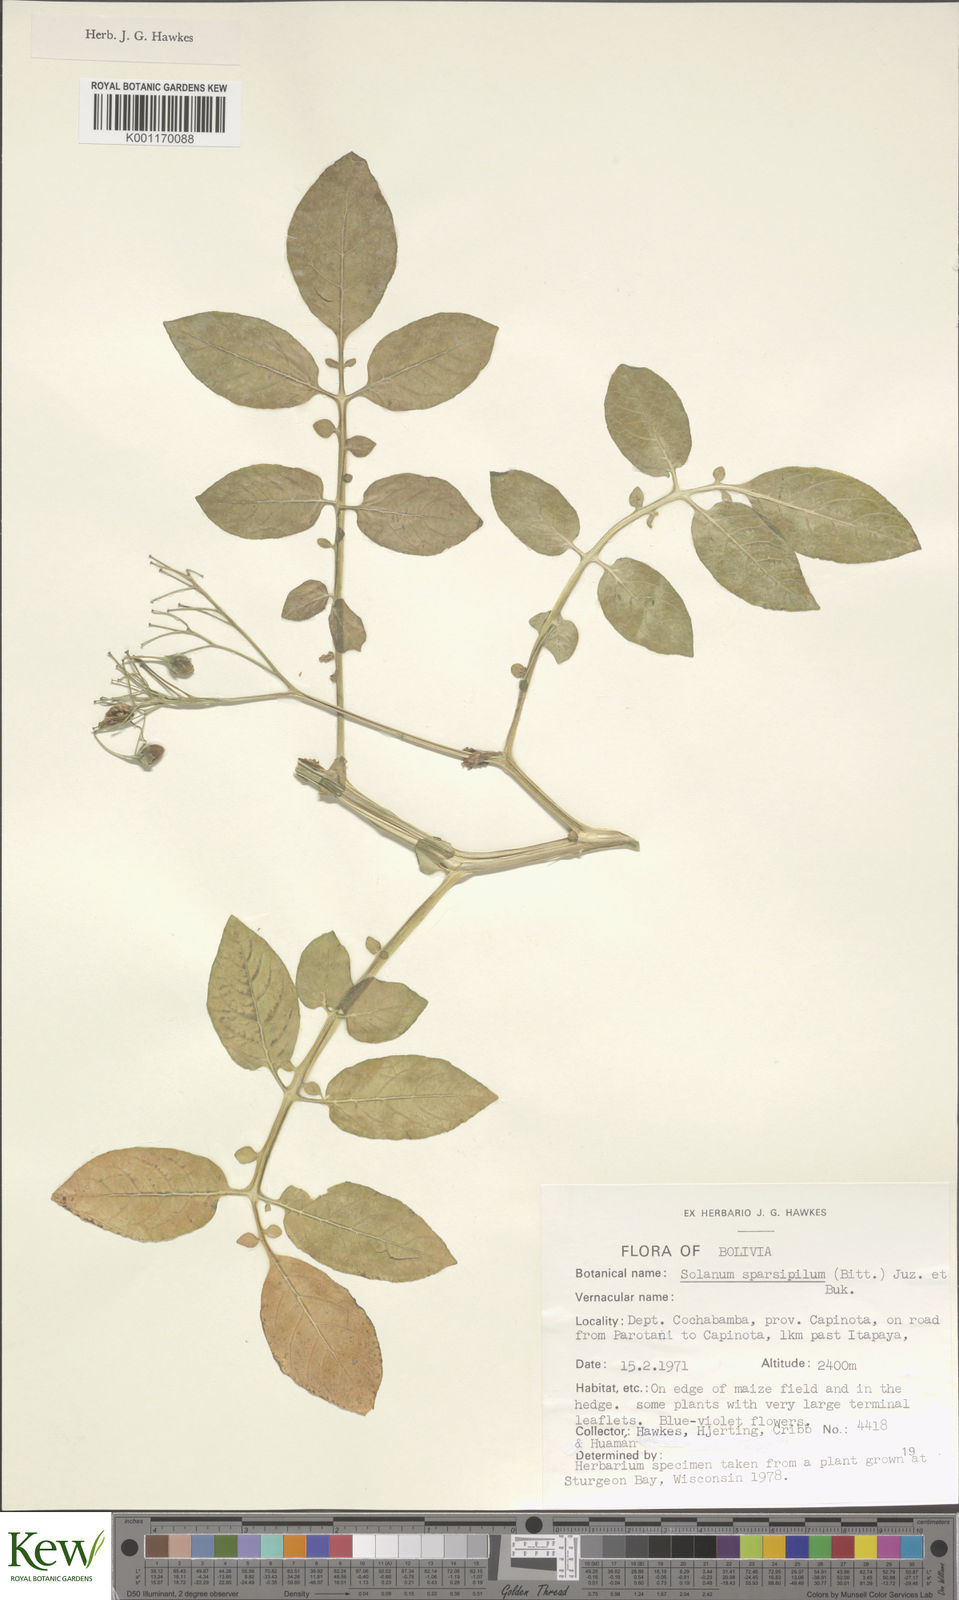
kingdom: Plantae
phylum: Tracheophyta
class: Magnoliopsida
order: Solanales
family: Solanaceae
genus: Solanum
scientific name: Solanum brevicaule
